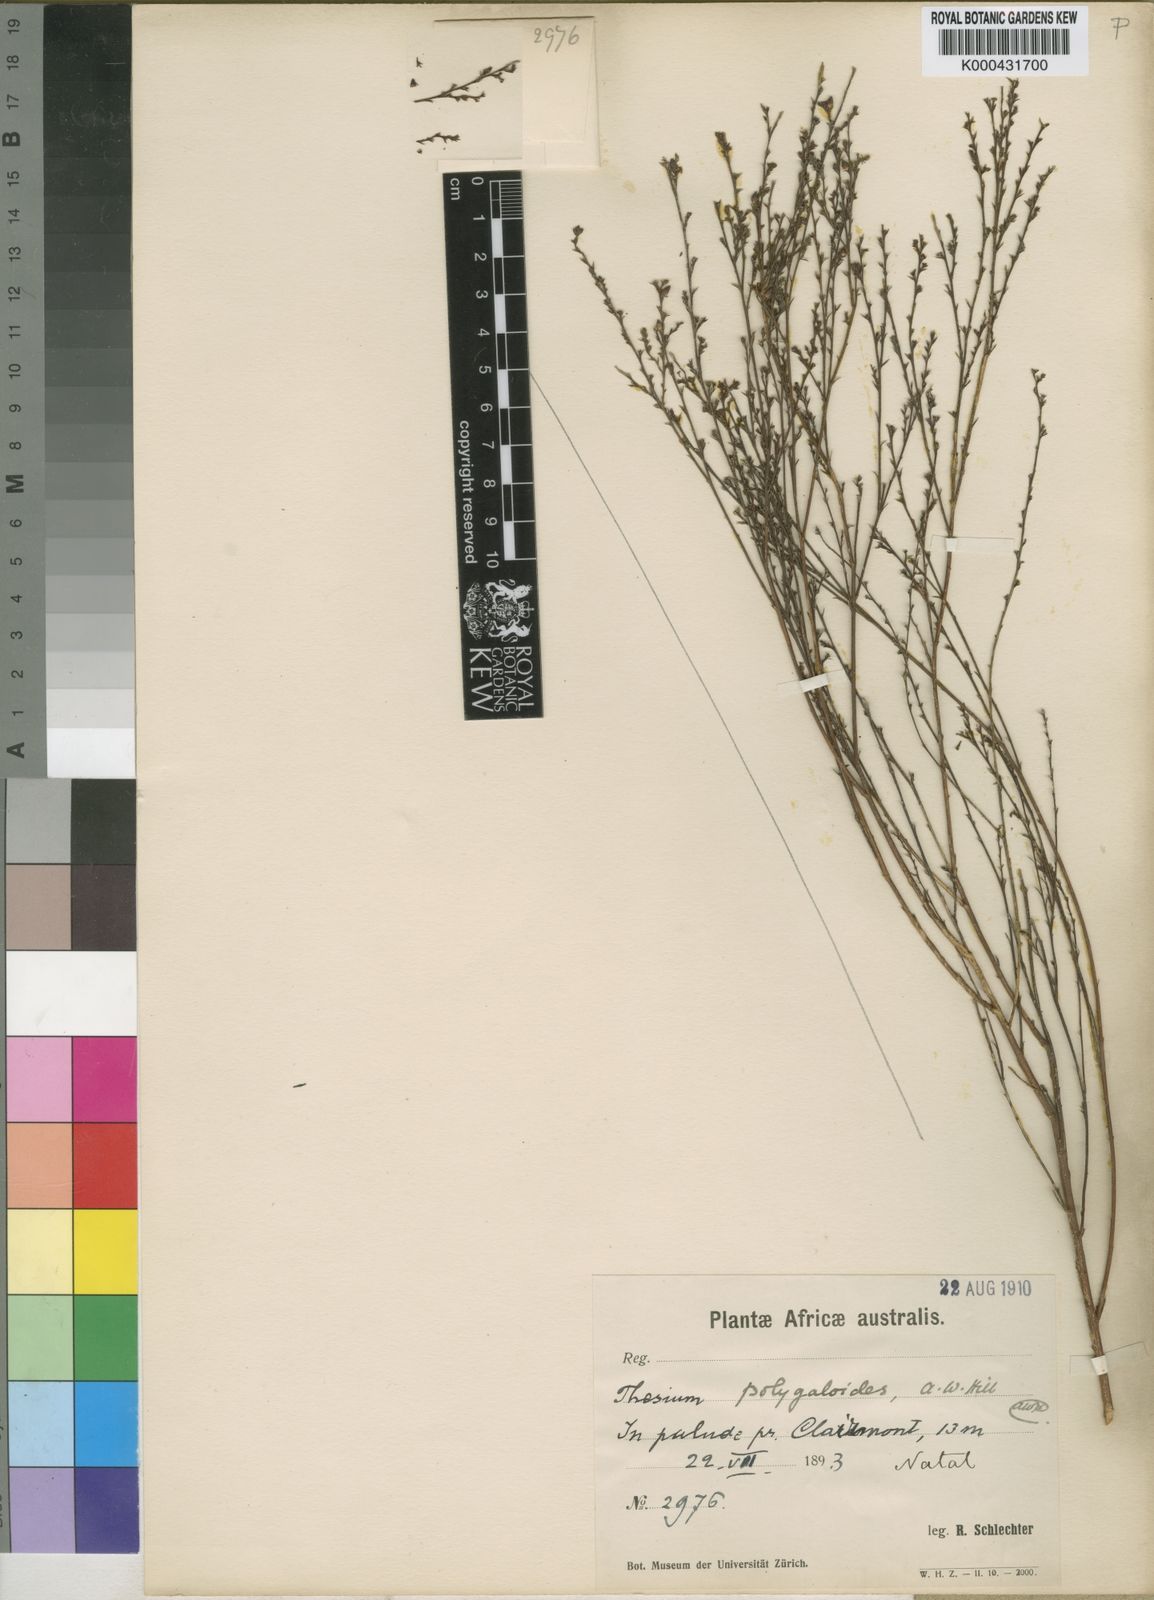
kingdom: Plantae
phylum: Tracheophyta
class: Magnoliopsida
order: Santalales
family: Thesiaceae
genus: Thesium
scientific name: Thesium polygaloides
